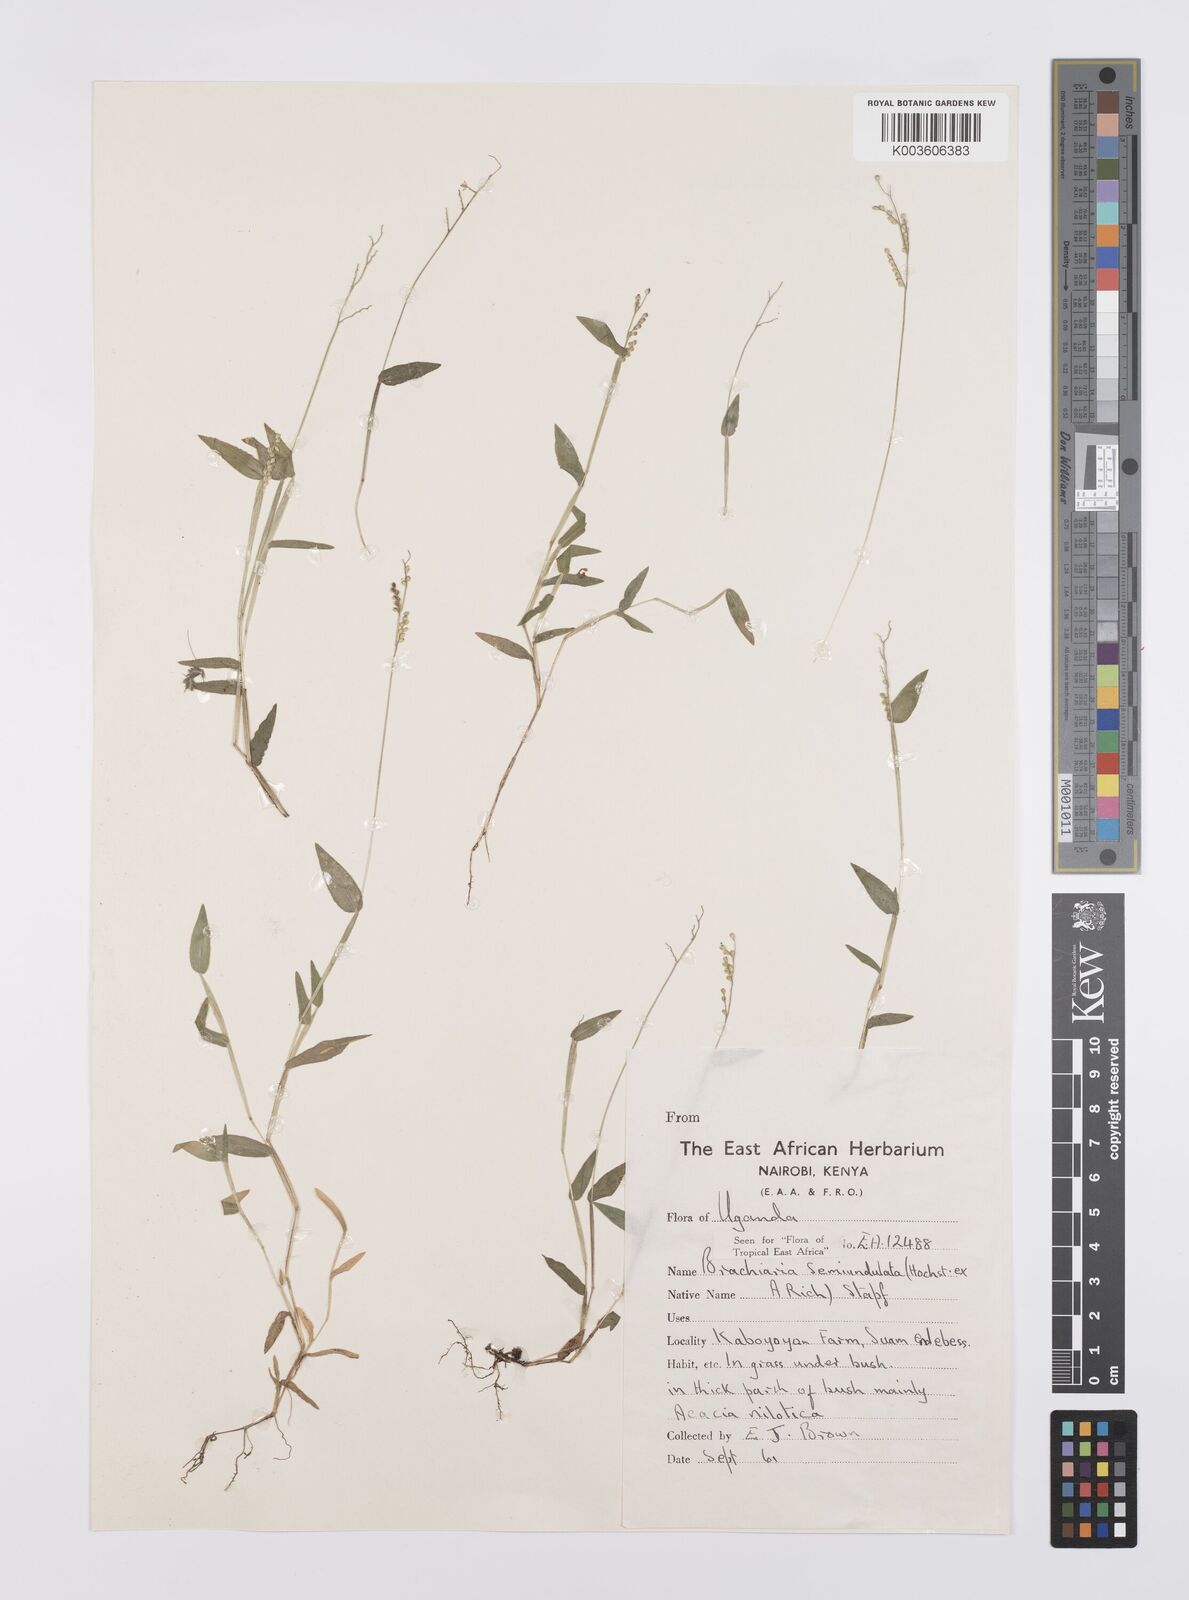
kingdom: Plantae
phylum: Tracheophyta
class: Liliopsida
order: Poales
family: Poaceae
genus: Urochloa
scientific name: Urochloa semiundulata
